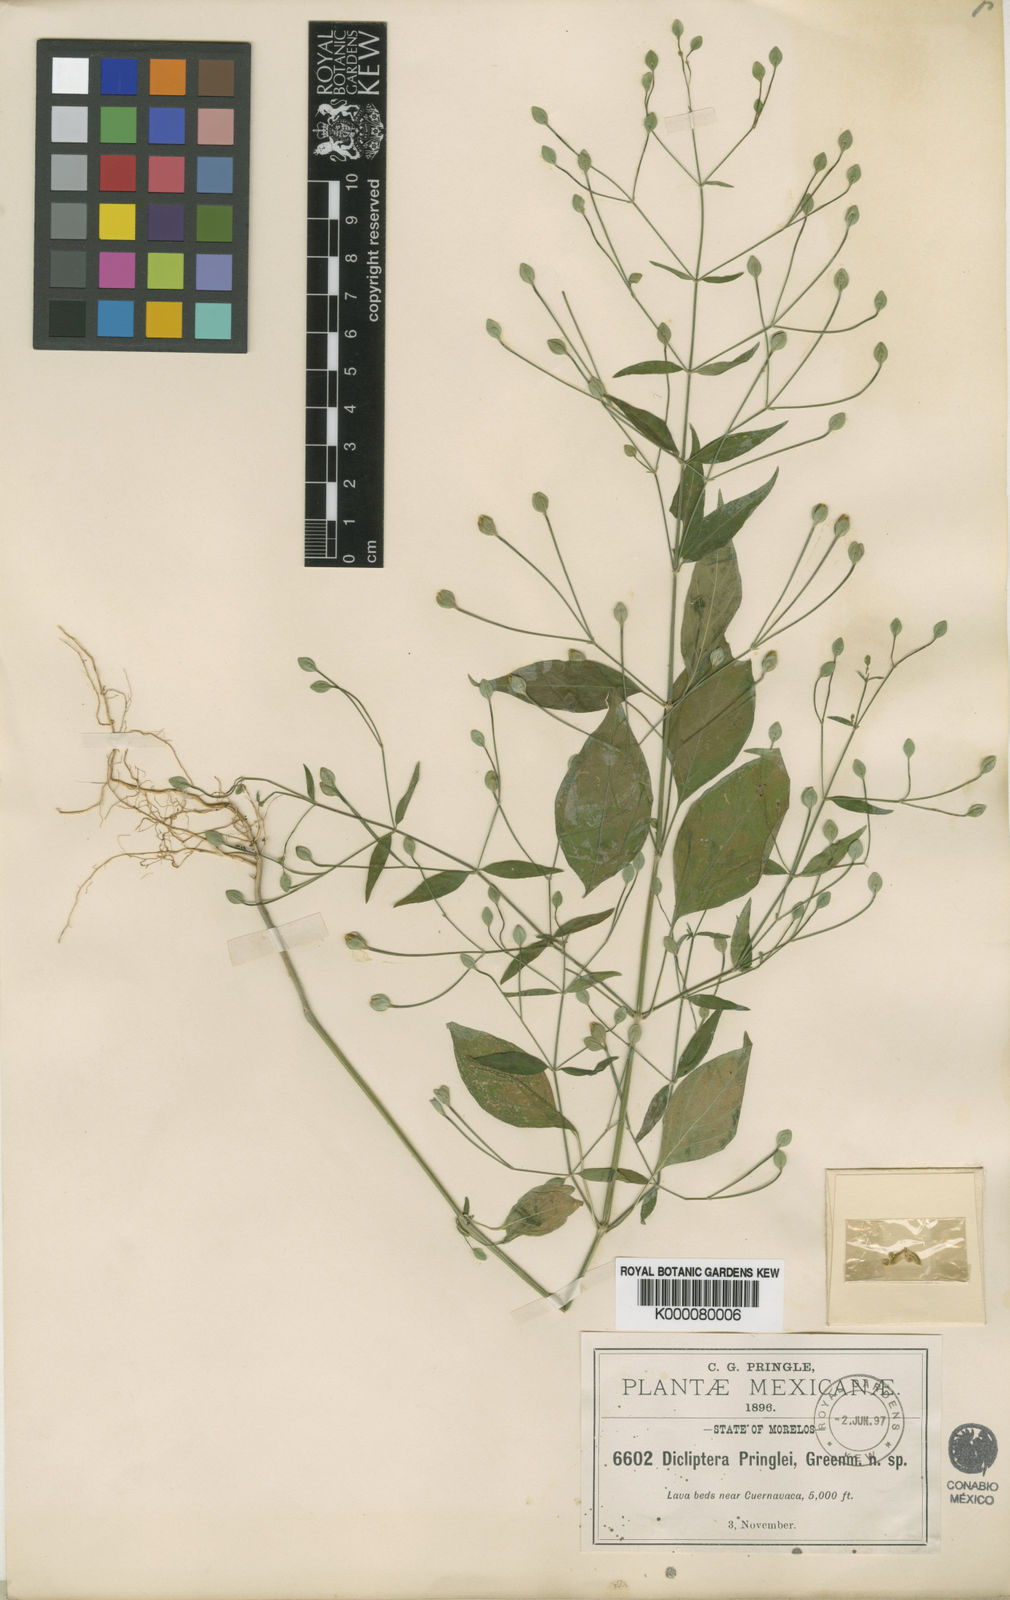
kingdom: Plantae
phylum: Tracheophyta
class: Magnoliopsida
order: Lamiales
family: Acanthaceae
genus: Dicliptera
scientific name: Dicliptera thlaspioides
